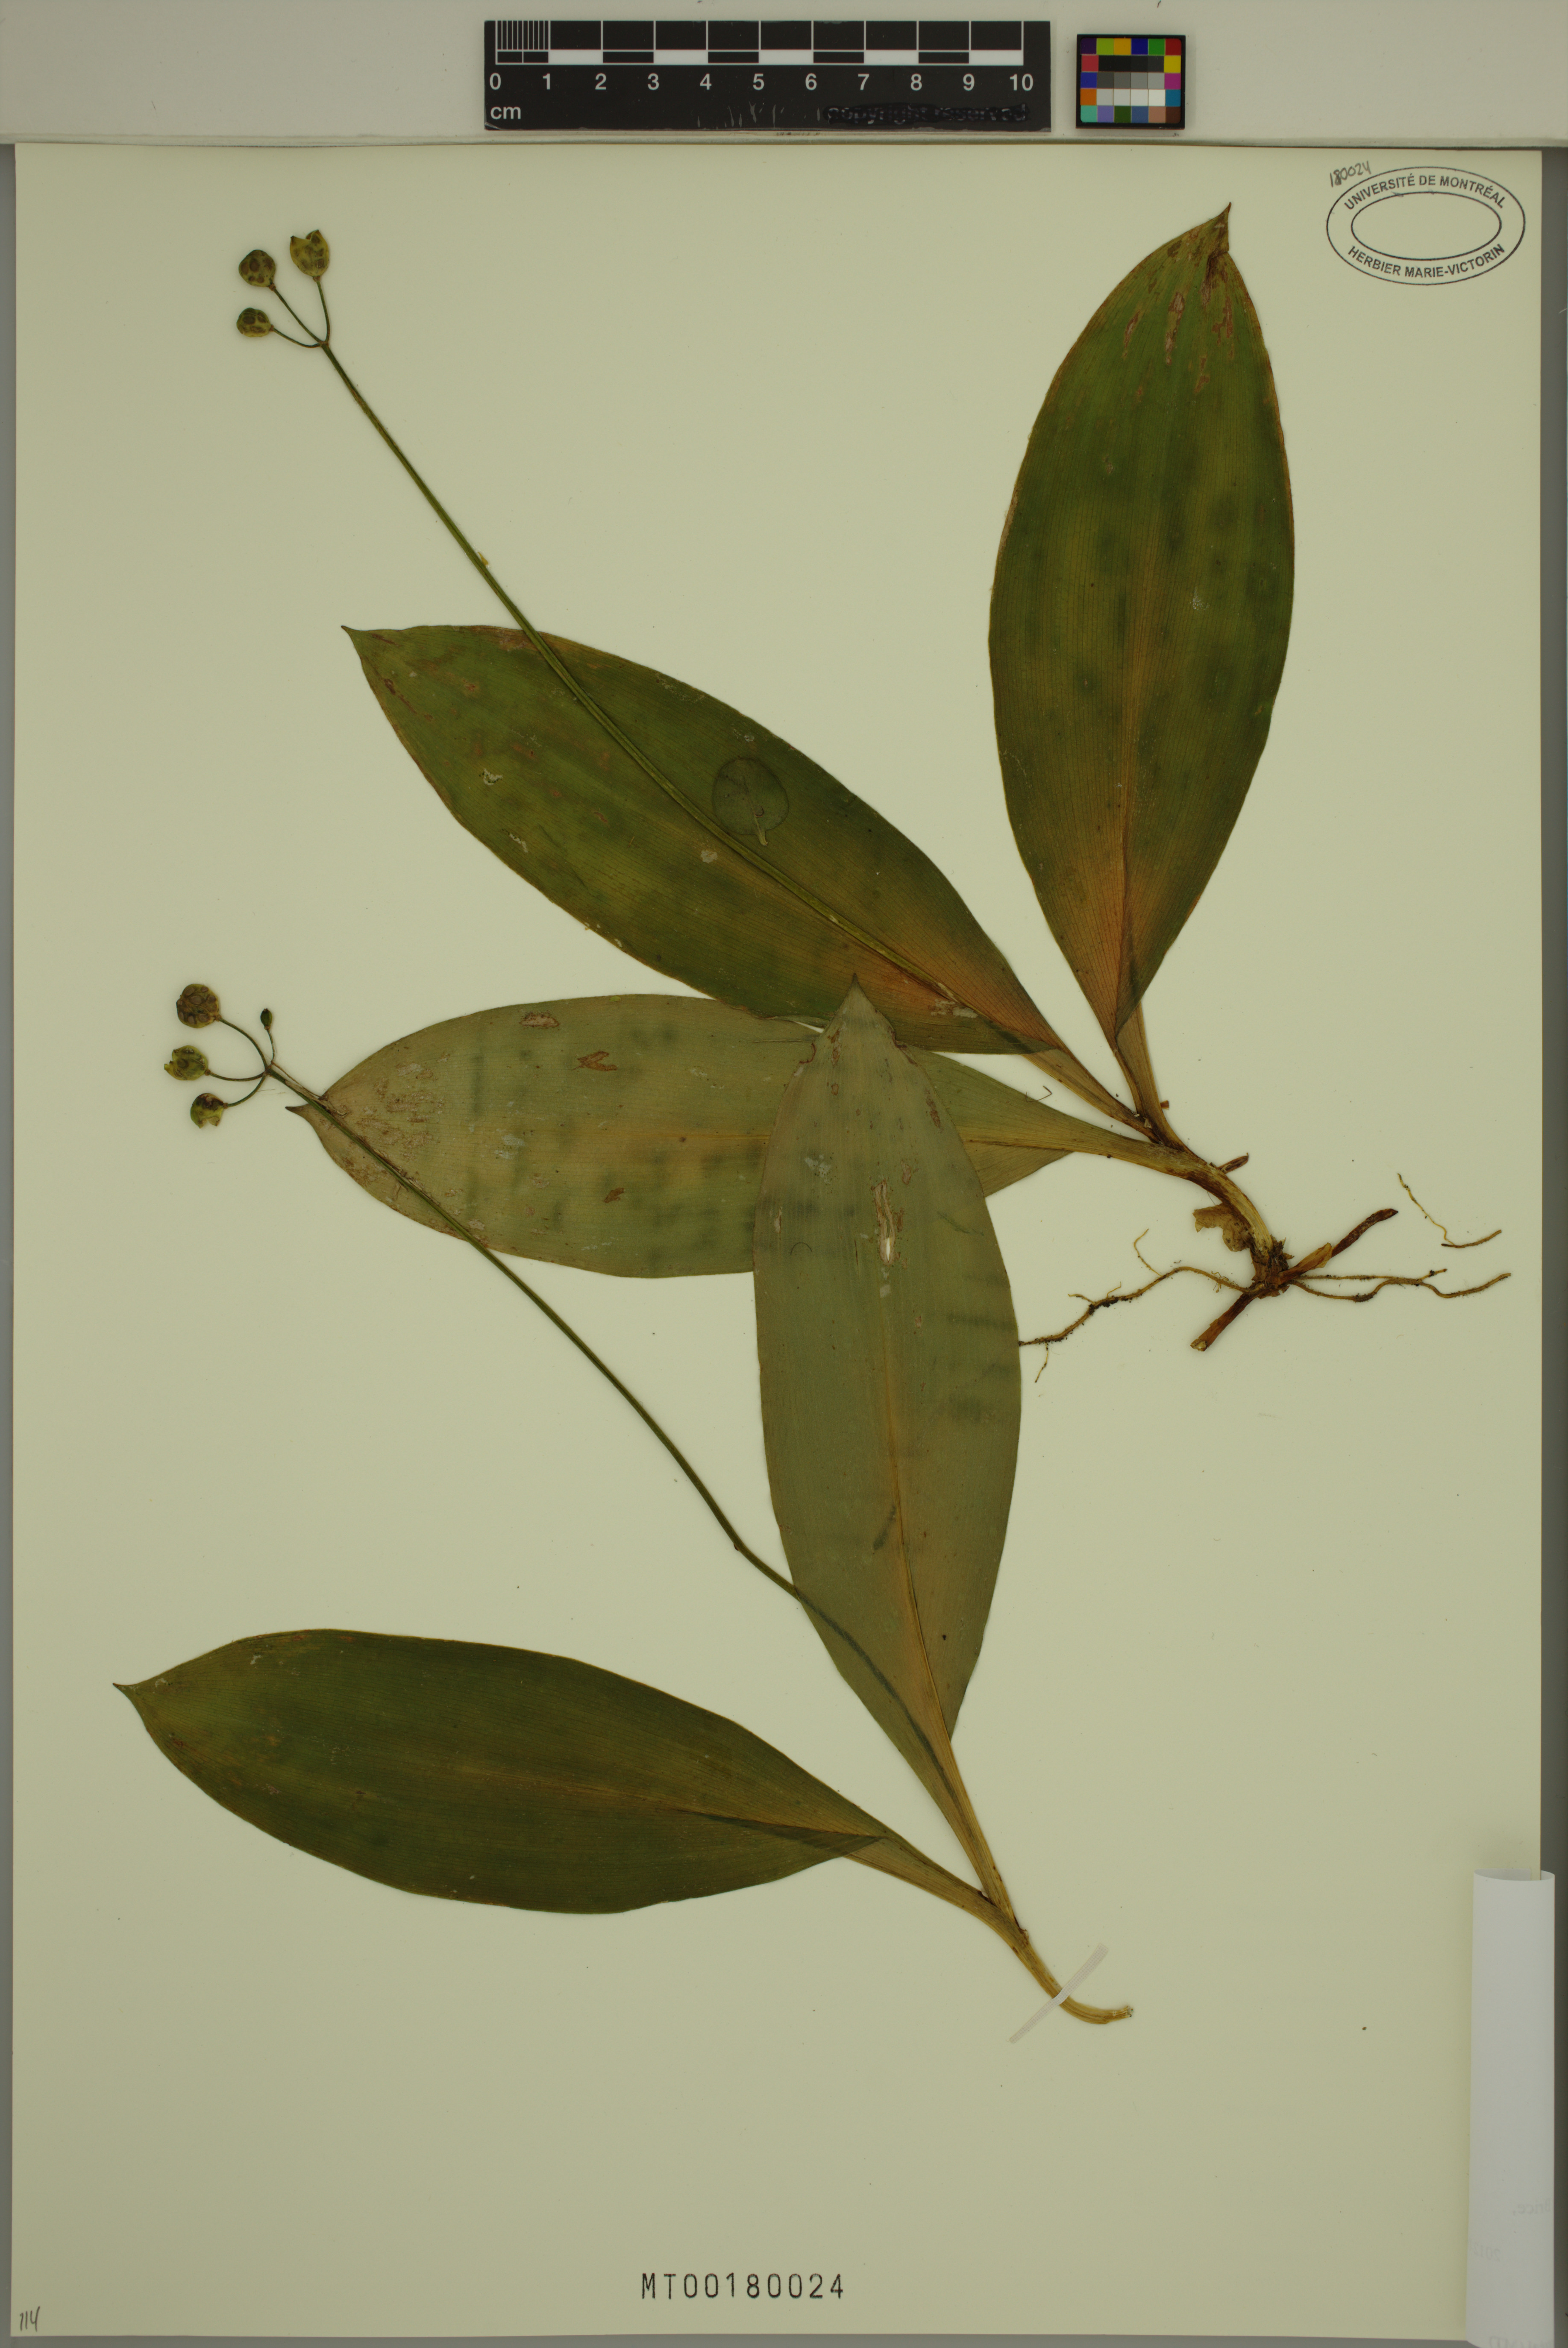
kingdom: Plantae
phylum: Tracheophyta
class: Liliopsida
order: Liliales
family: Liliaceae
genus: Clintonia
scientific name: Clintonia borealis
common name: Yellow clintonia
